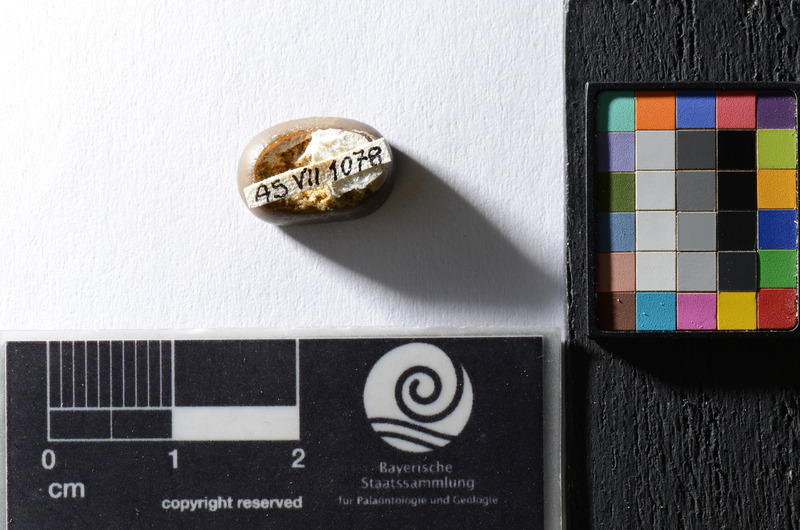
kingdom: Animalia
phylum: Chordata
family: Pycnodontidae
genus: Anomoeodus
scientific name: Anomoeodus
